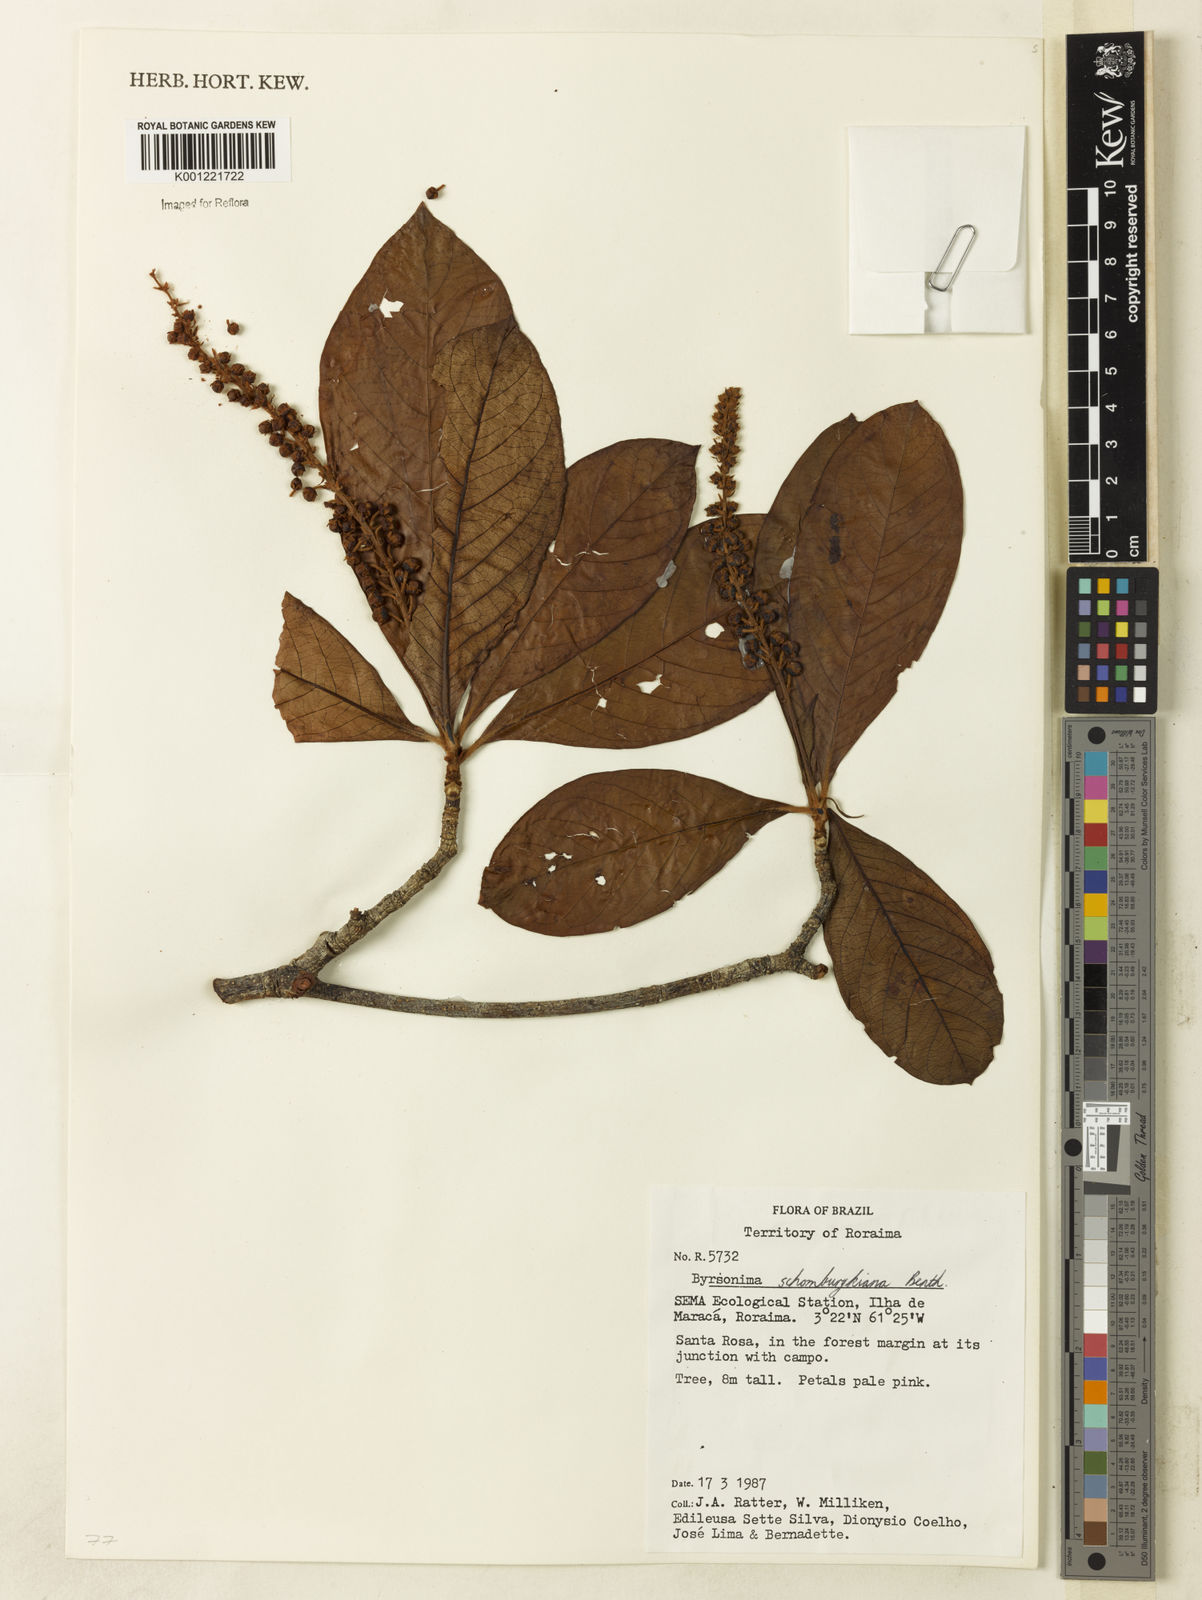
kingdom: Plantae
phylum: Tracheophyta
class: Magnoliopsida
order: Malpighiales
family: Malpighiaceae
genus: Byrsonima
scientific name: Byrsonima schomburgkiana
